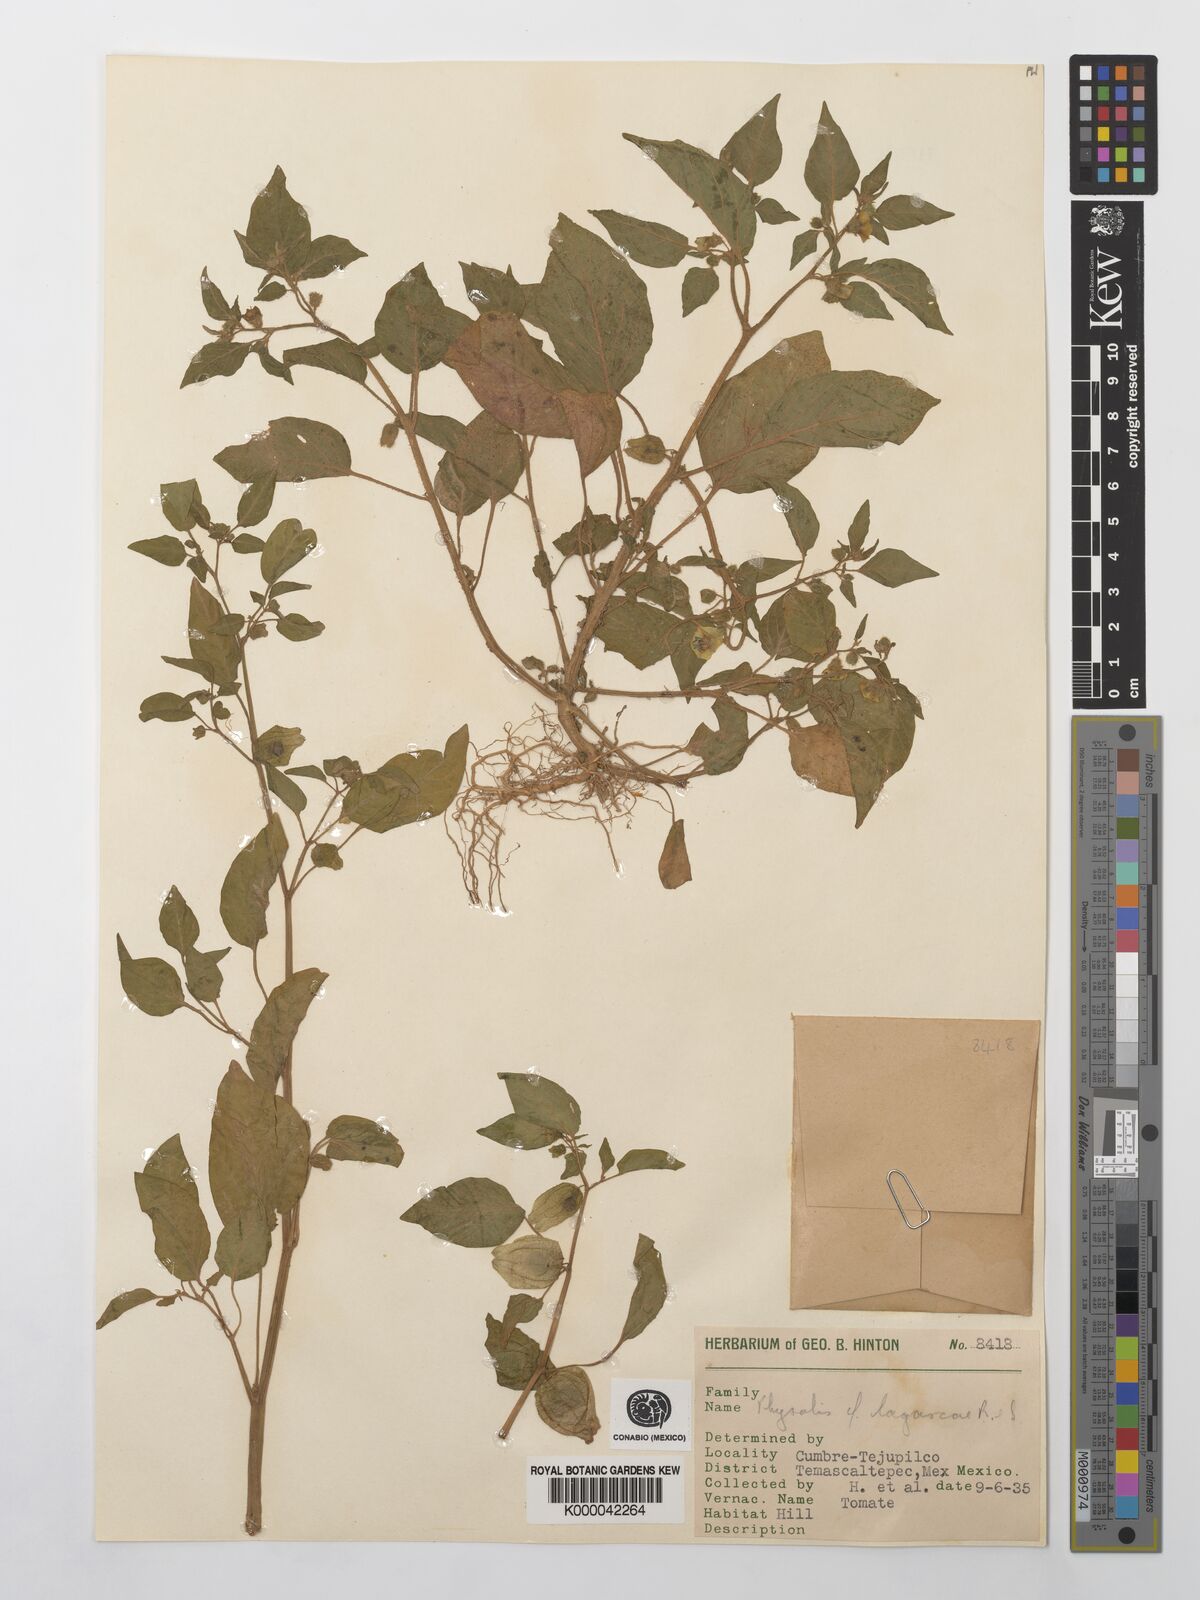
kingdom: Plantae
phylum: Tracheophyta
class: Magnoliopsida
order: Solanales
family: Solanaceae
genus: Physalis
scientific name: Physalis lagascae
